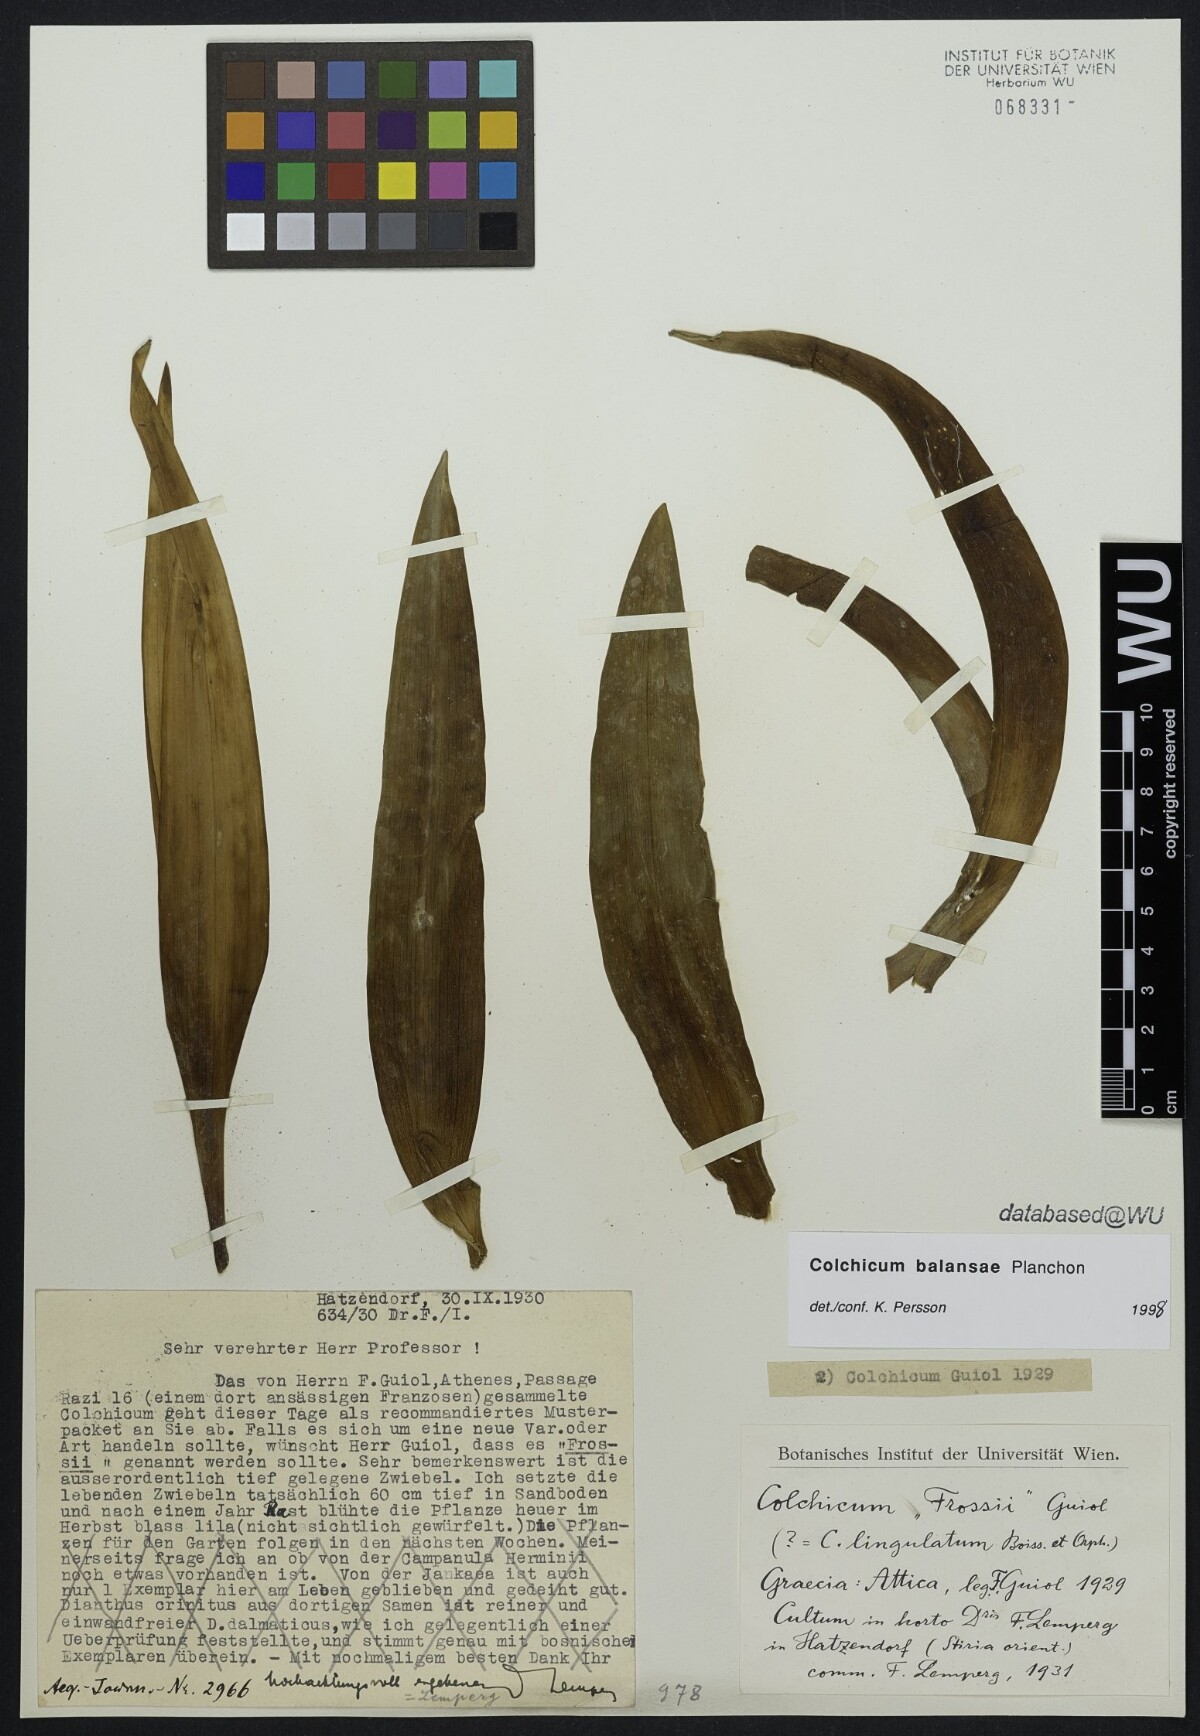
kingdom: Plantae
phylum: Tracheophyta
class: Liliopsida
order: Liliales
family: Colchicaceae
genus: Colchicum
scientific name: Colchicum
